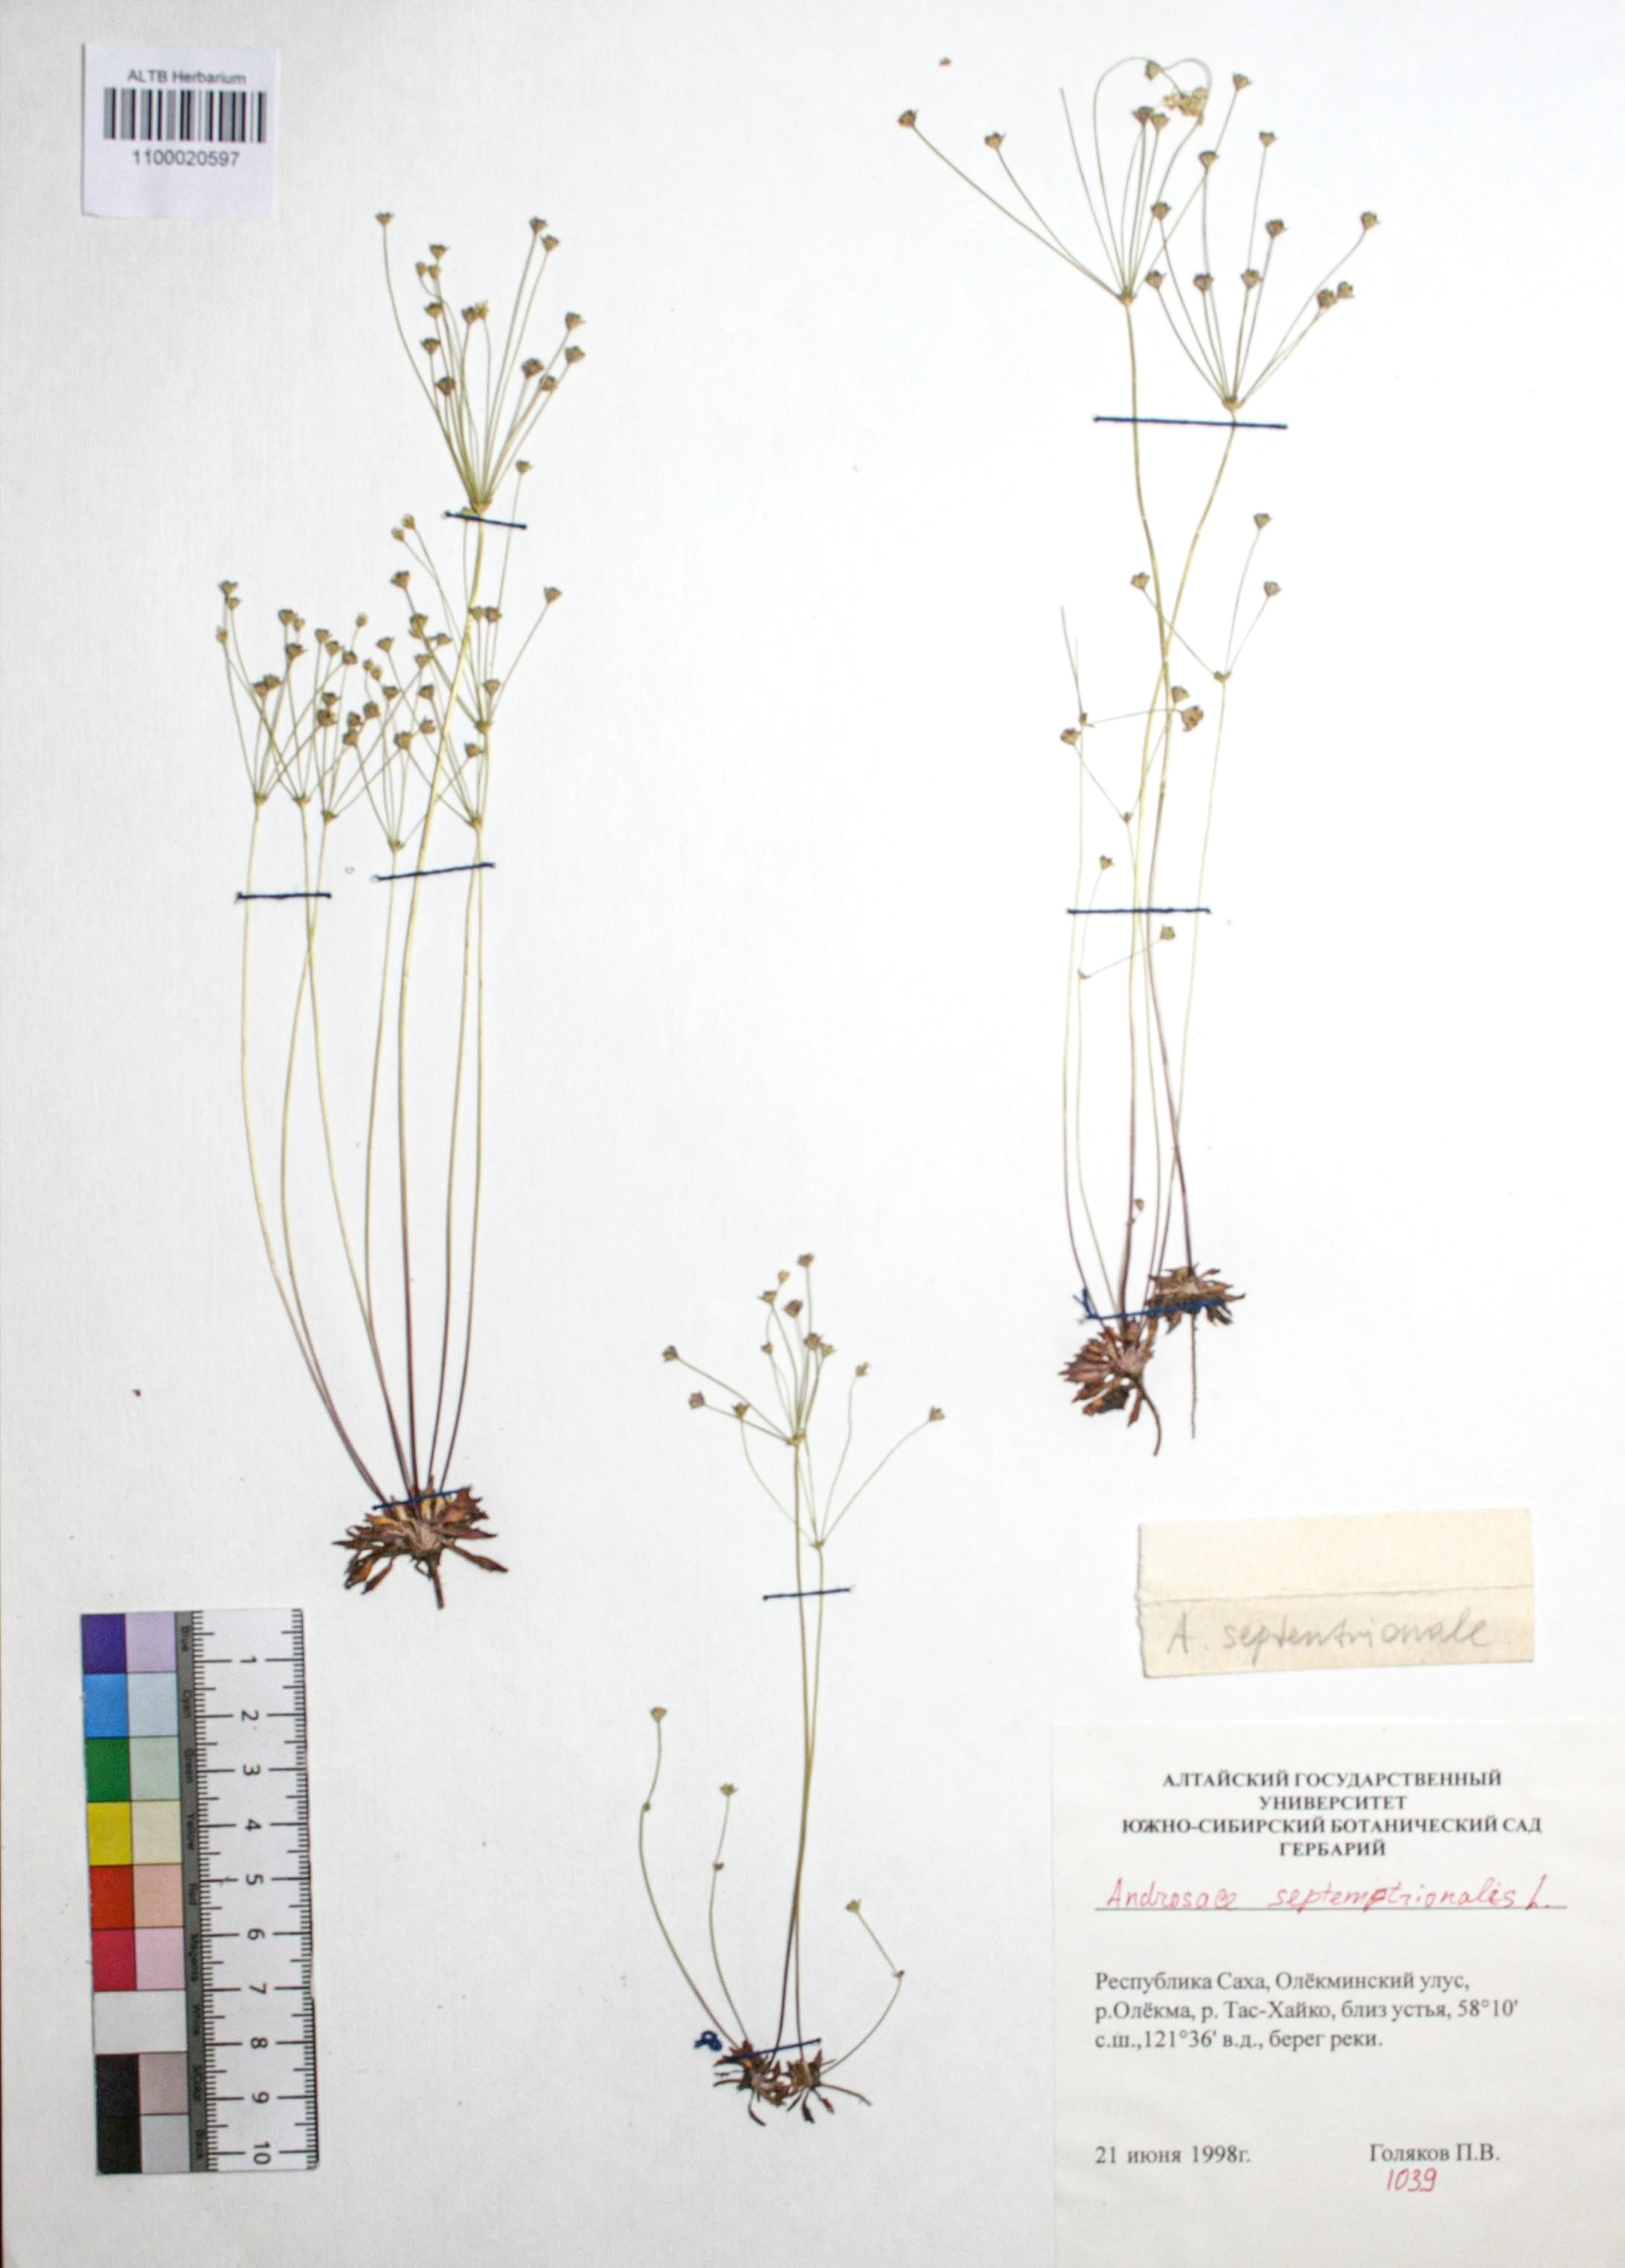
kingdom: Plantae
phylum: Tracheophyta
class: Magnoliopsida
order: Ericales
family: Primulaceae
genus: Androsace
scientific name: Androsace septentrionalis
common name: Hairy northern fairy-candelabra
